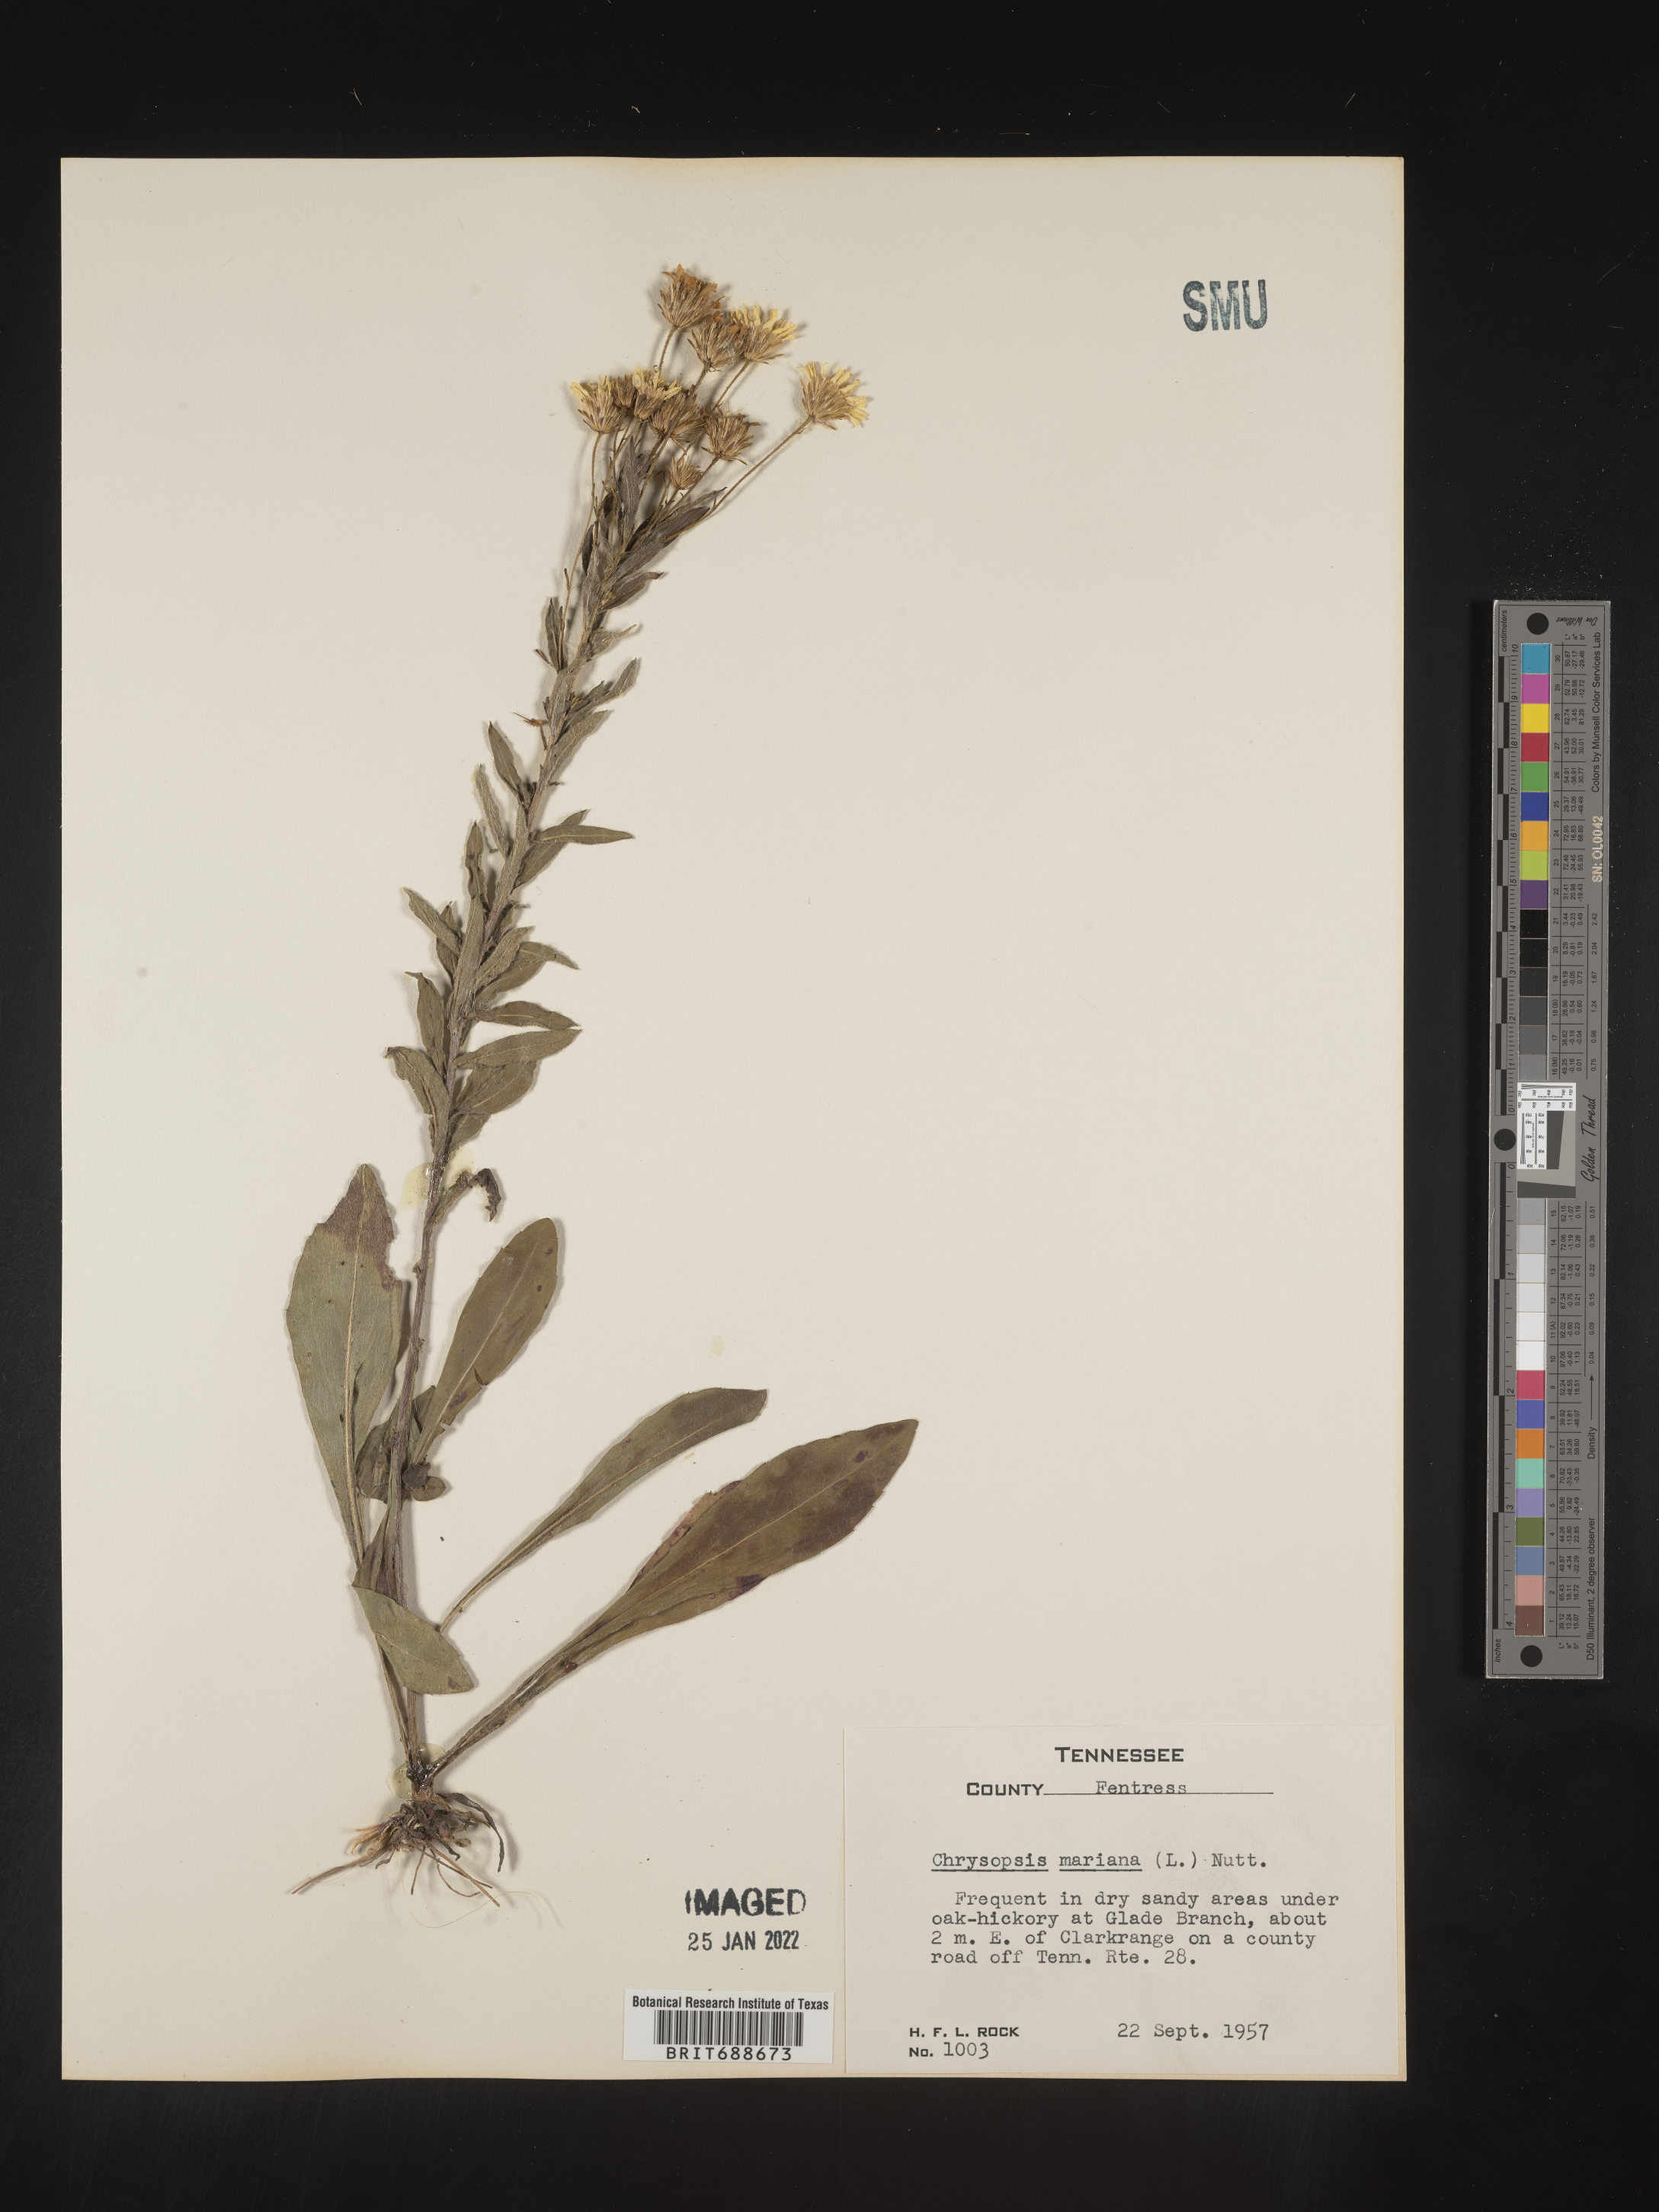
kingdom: Plantae
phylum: Tracheophyta
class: Magnoliopsida
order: Asterales
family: Asteraceae
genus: Chrysopsis
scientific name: Chrysopsis mariana
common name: Maryland golden-aster
